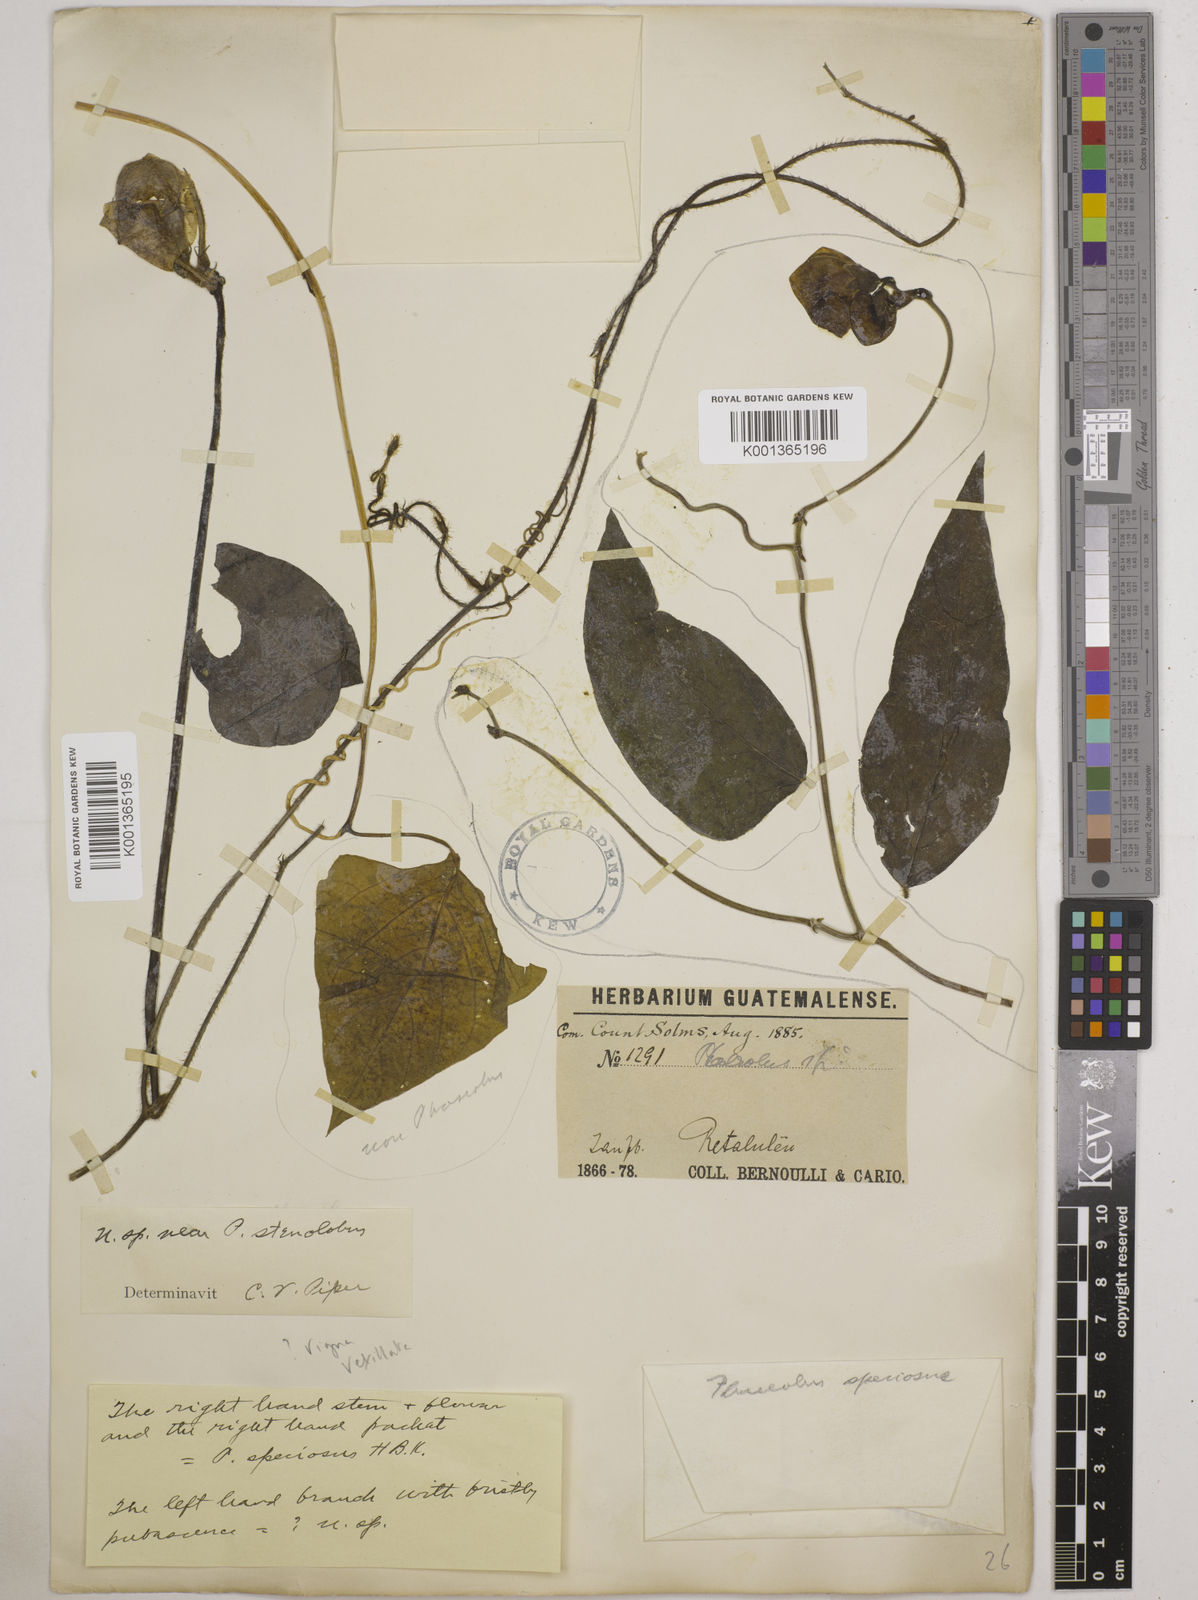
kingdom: Plantae
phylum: Tracheophyta
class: Magnoliopsida
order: Fabales
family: Fabaceae
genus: Sigmoidotropis
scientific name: Sigmoidotropis speciosa
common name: Snail flower
